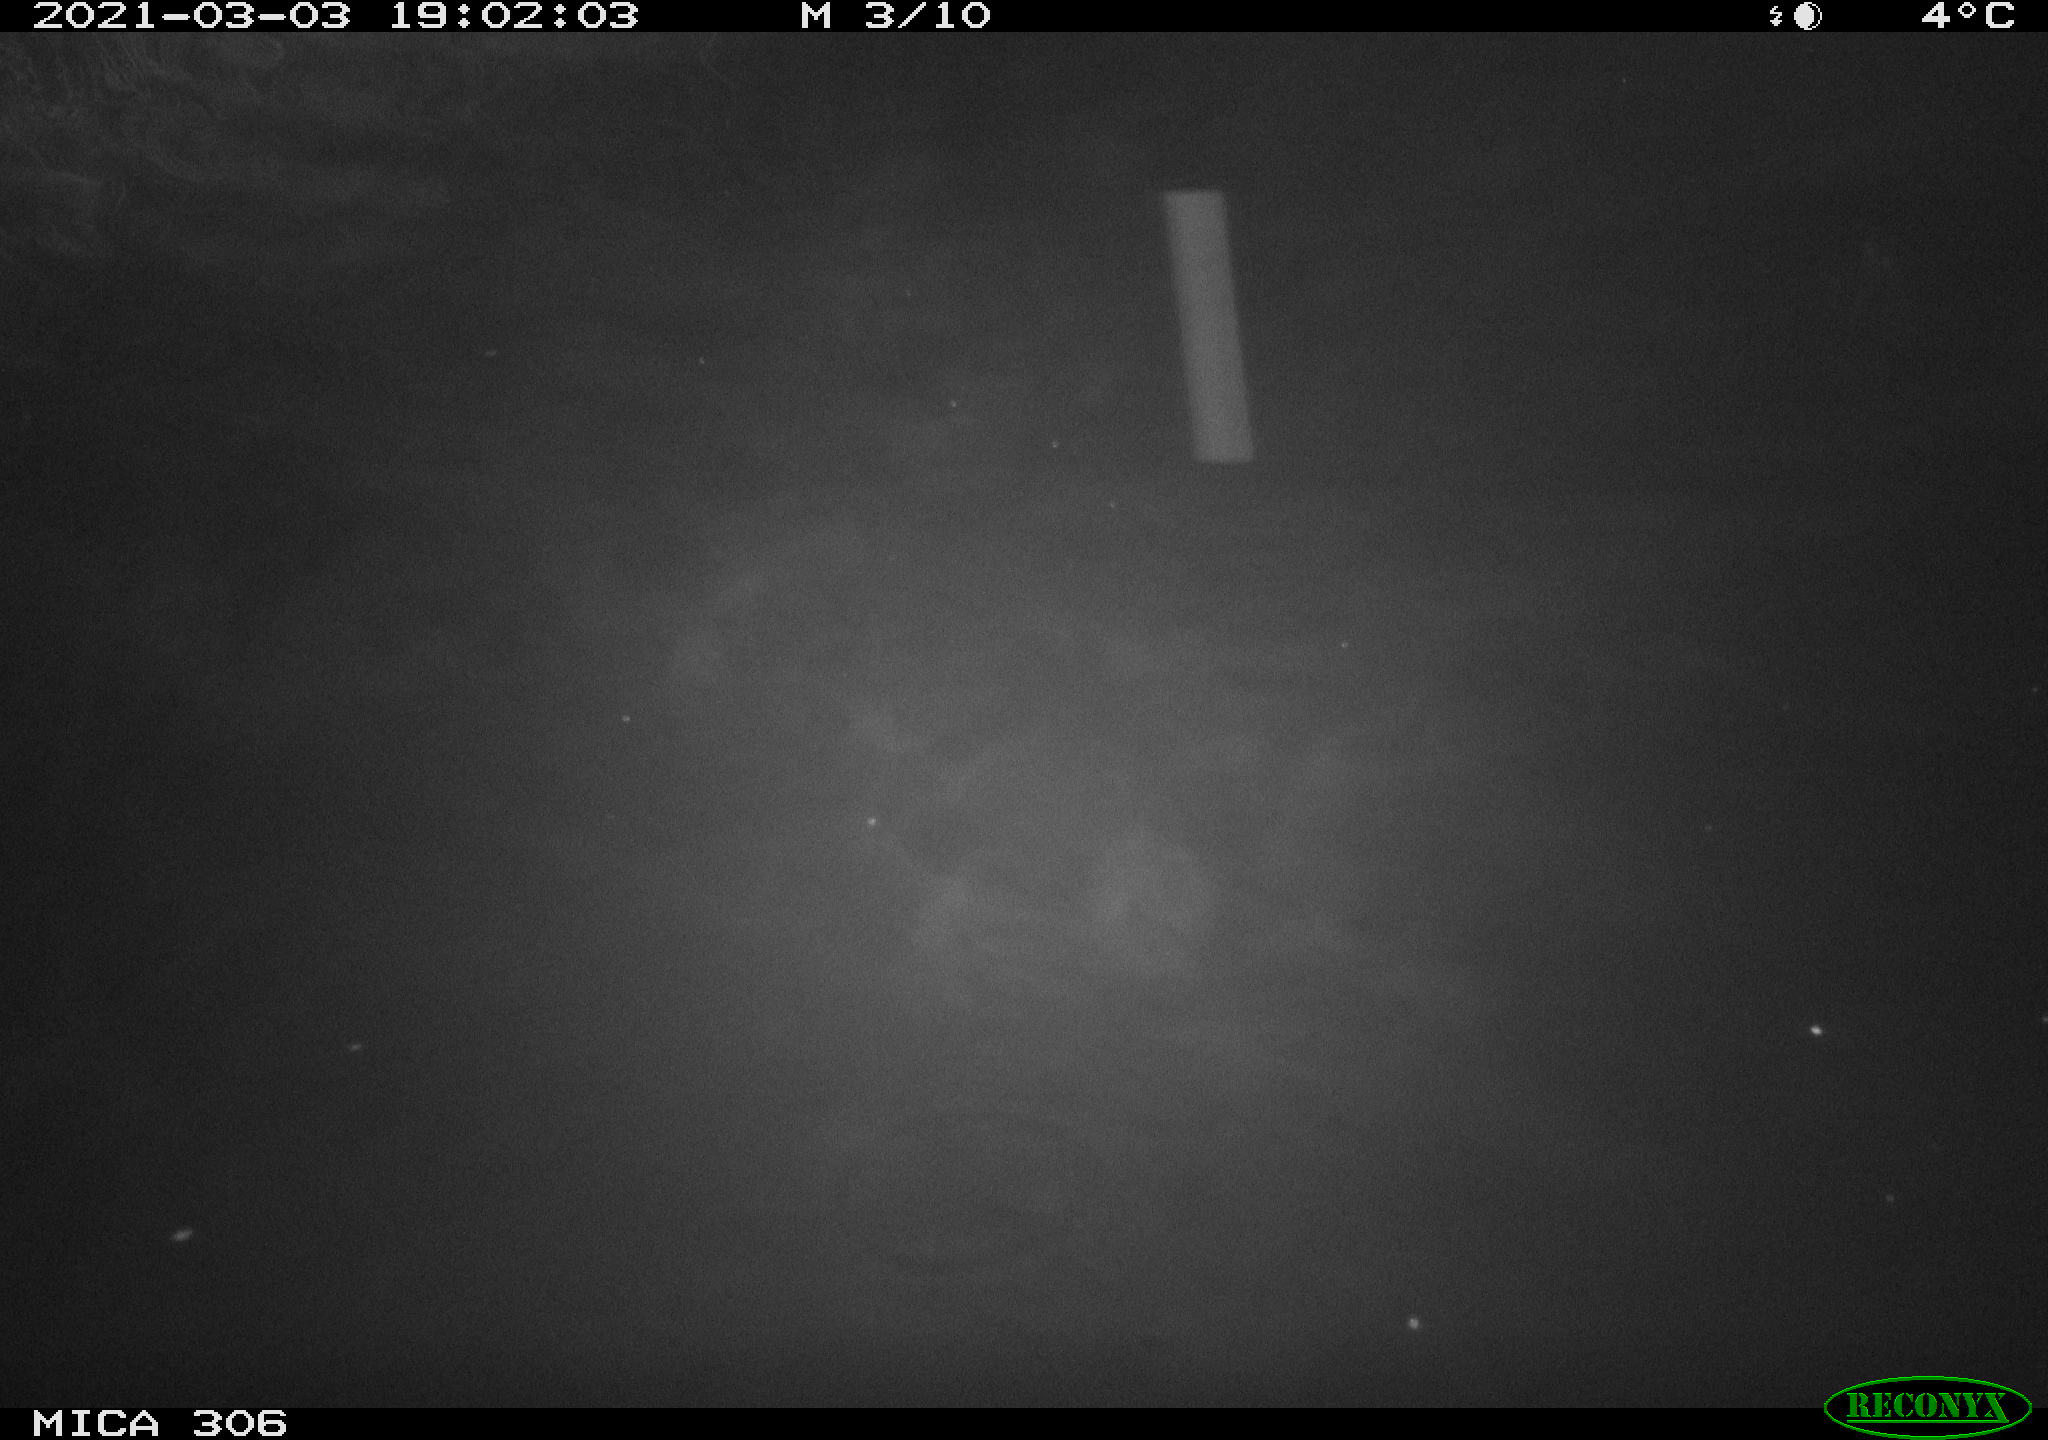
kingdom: Animalia
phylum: Chordata
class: Aves
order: Gruiformes
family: Rallidae
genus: Gallinula
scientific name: Gallinula chloropus
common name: Common moorhen
